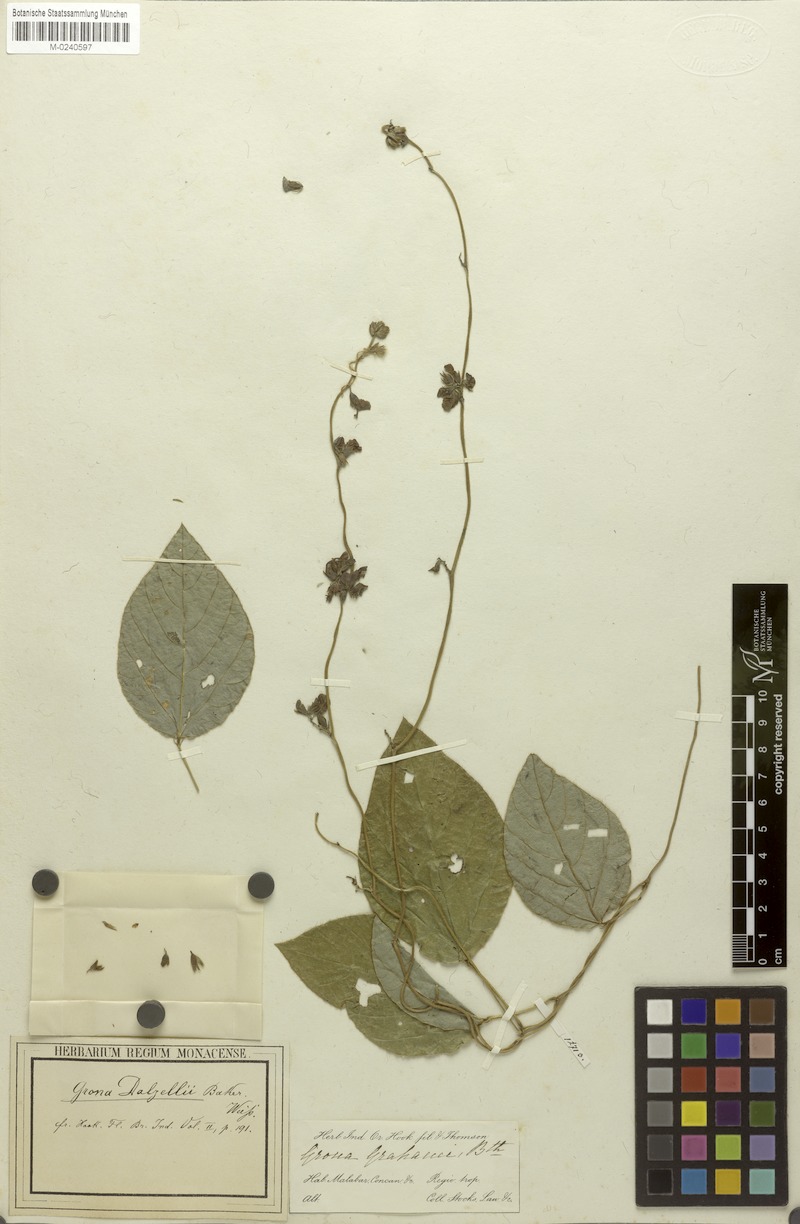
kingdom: Plantae
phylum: Tracheophyta
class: Magnoliopsida
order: Fabales
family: Fabaceae
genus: Nogra
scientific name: Nogra dalzellii
